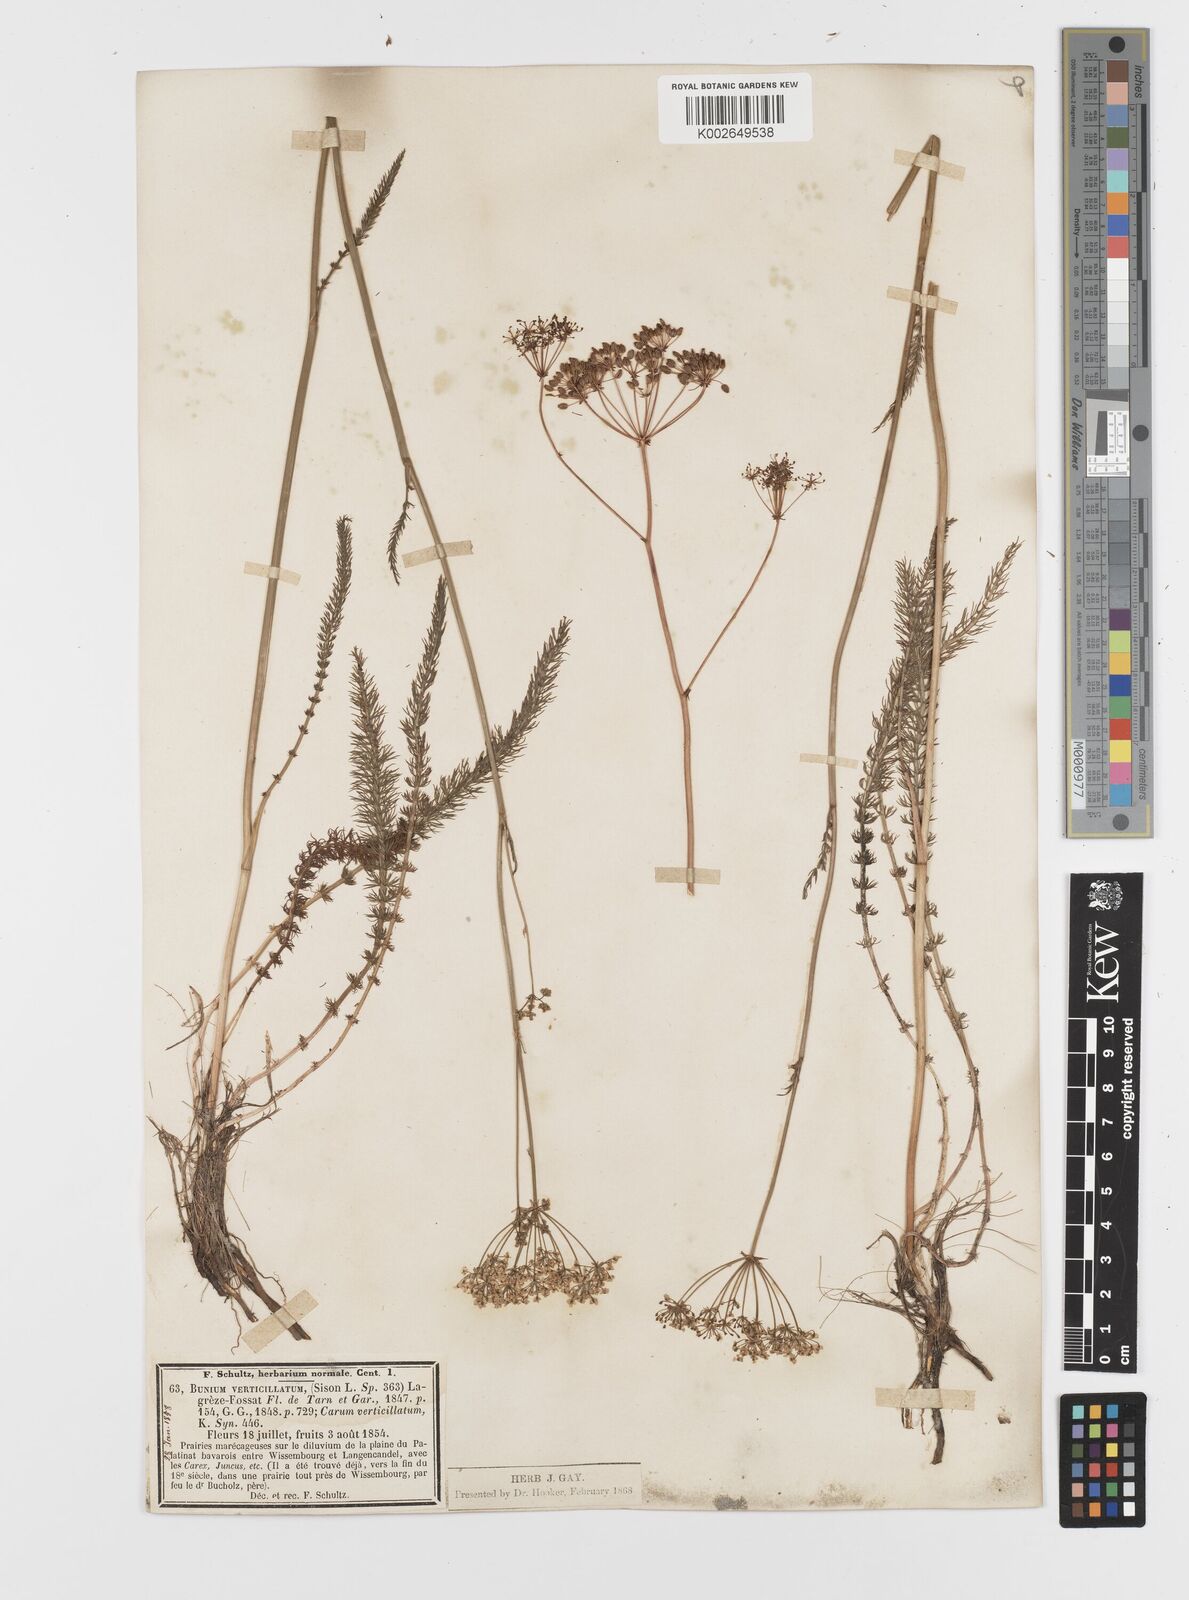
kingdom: Plantae
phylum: Tracheophyta
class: Magnoliopsida
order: Apiales
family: Apiaceae
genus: Trocdaris
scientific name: Trocdaris verticillatum
